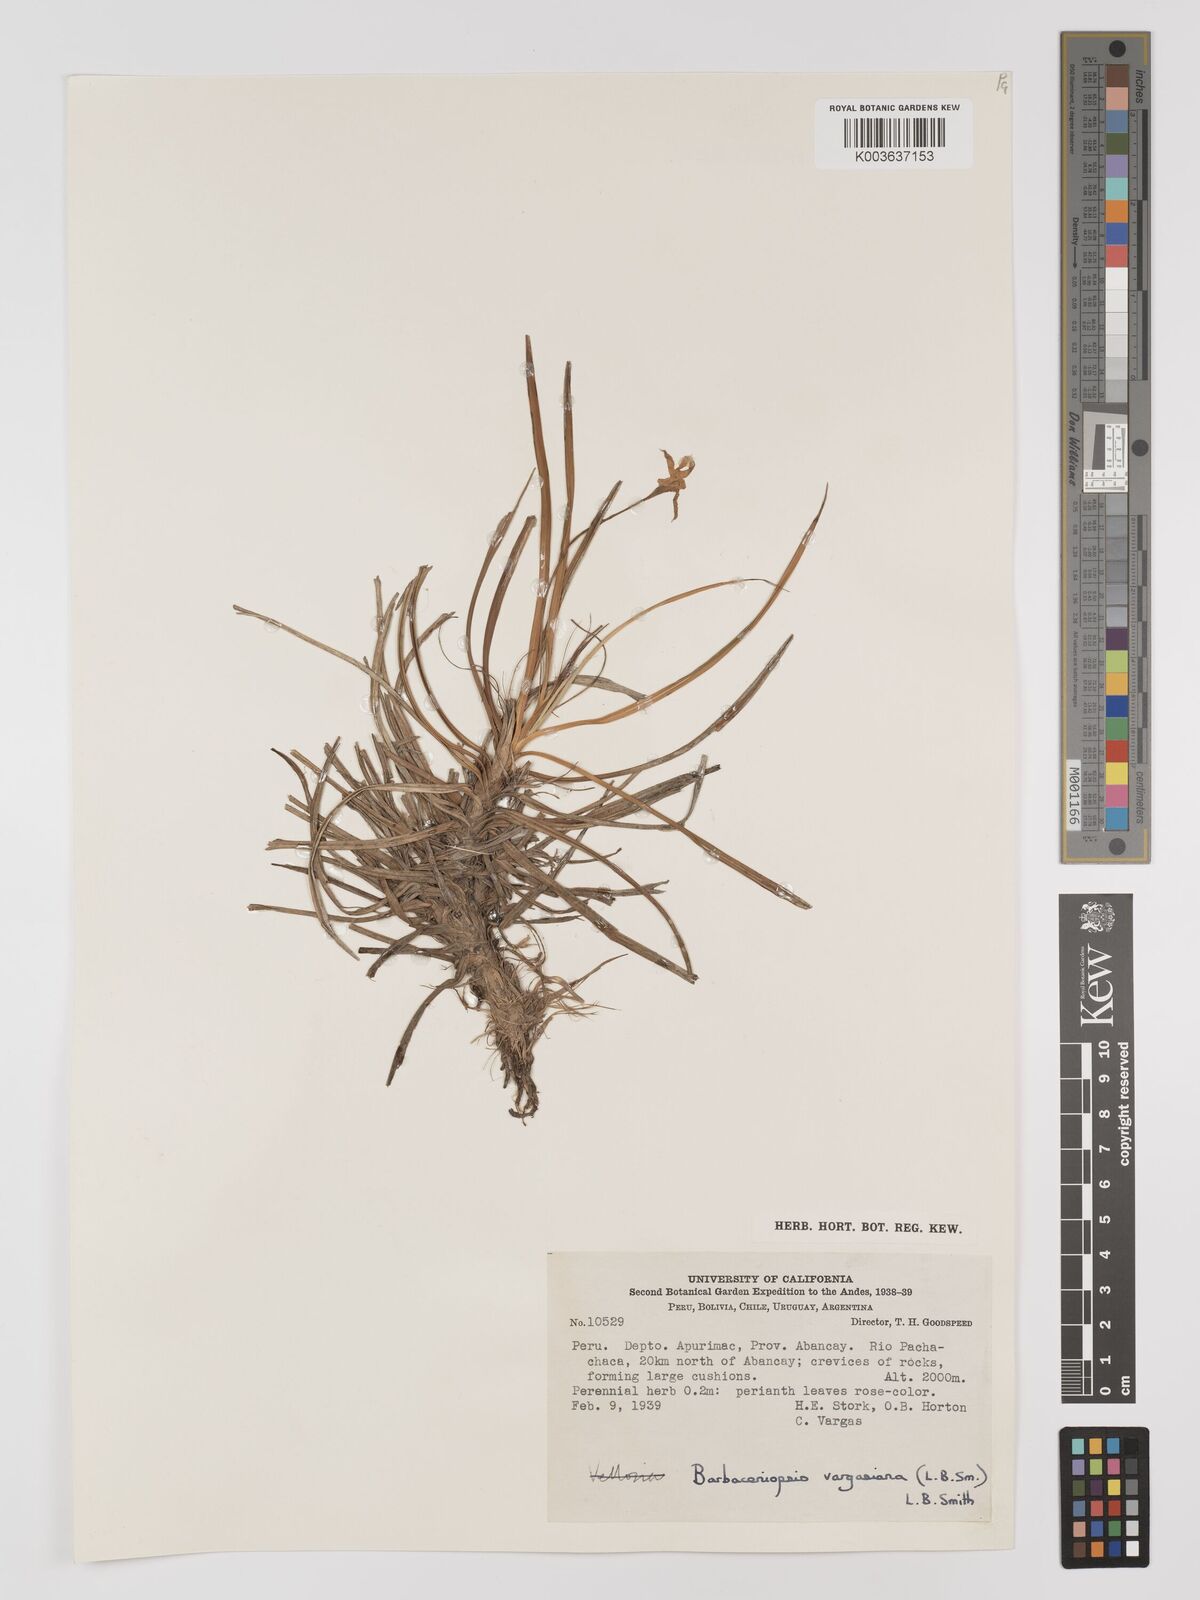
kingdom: Plantae
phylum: Tracheophyta
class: Liliopsida
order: Pandanales
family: Velloziaceae
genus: Barbaceniopsis
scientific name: Barbaceniopsis vargasiana
